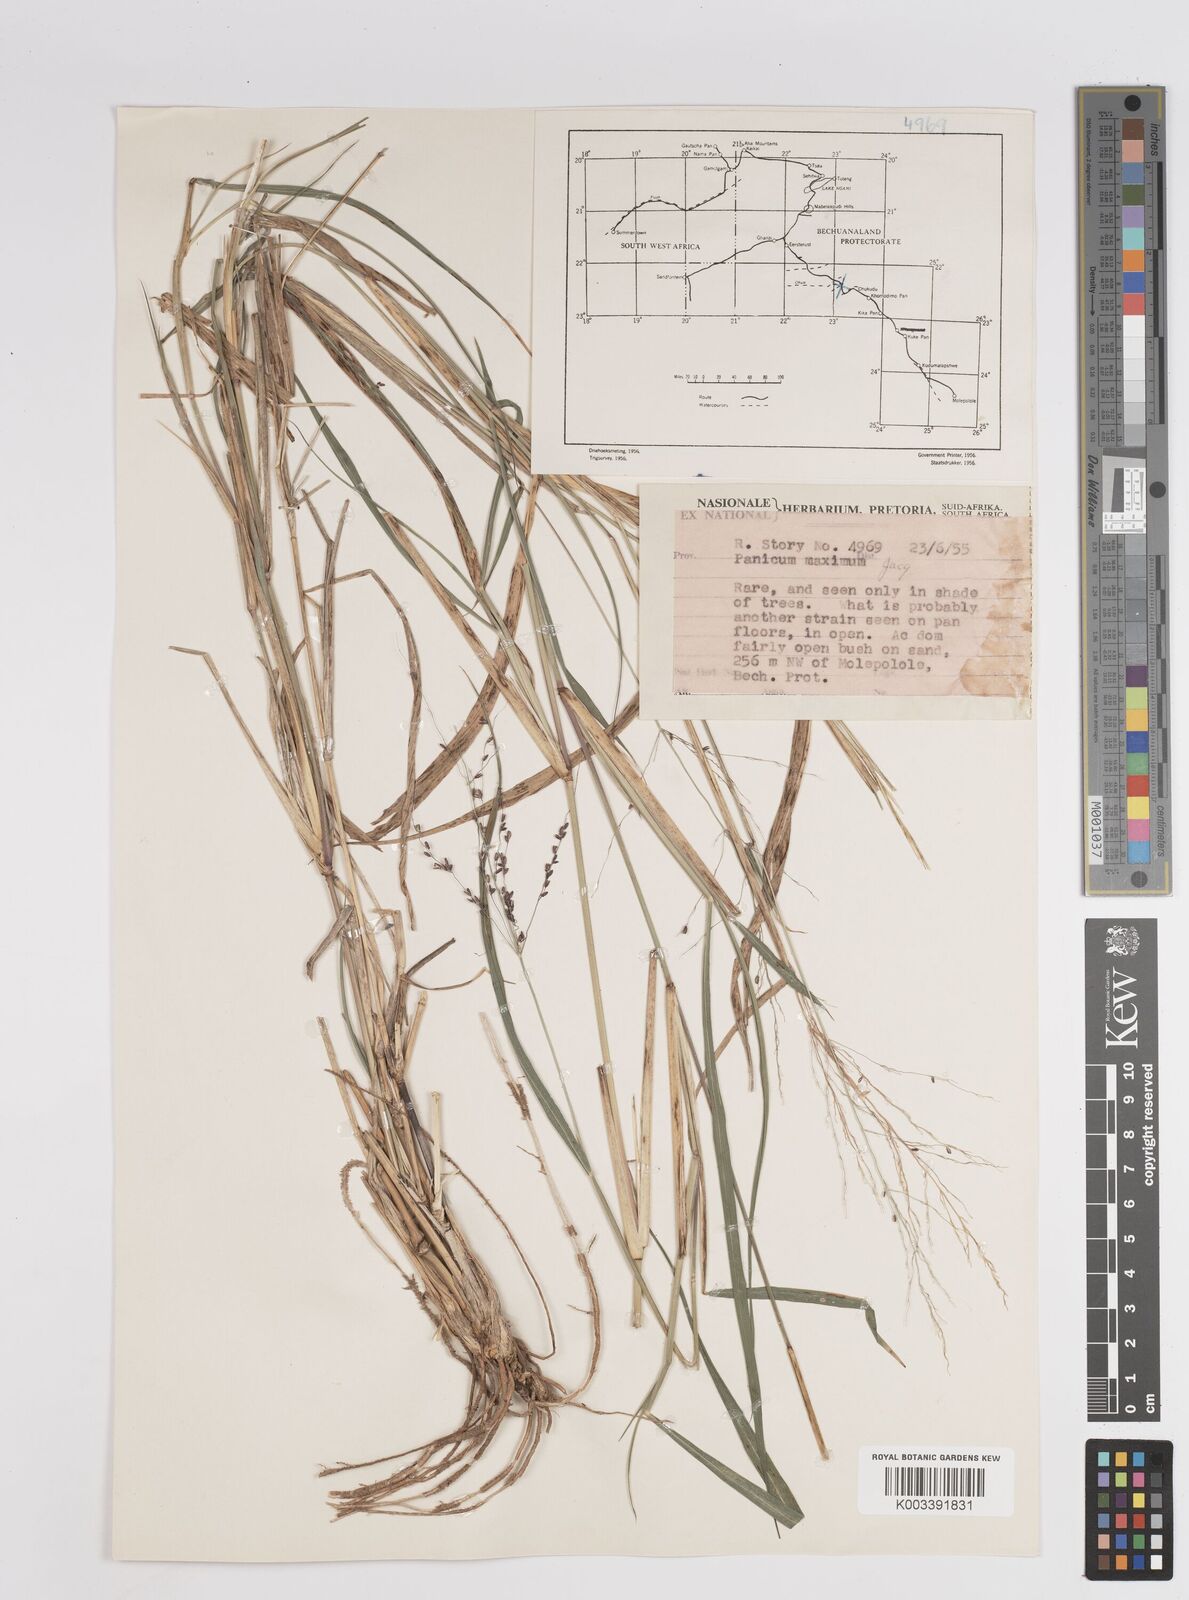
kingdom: Plantae
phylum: Tracheophyta
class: Liliopsida
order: Poales
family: Poaceae
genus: Megathyrsus
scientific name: Megathyrsus maximus
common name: Guineagrass
